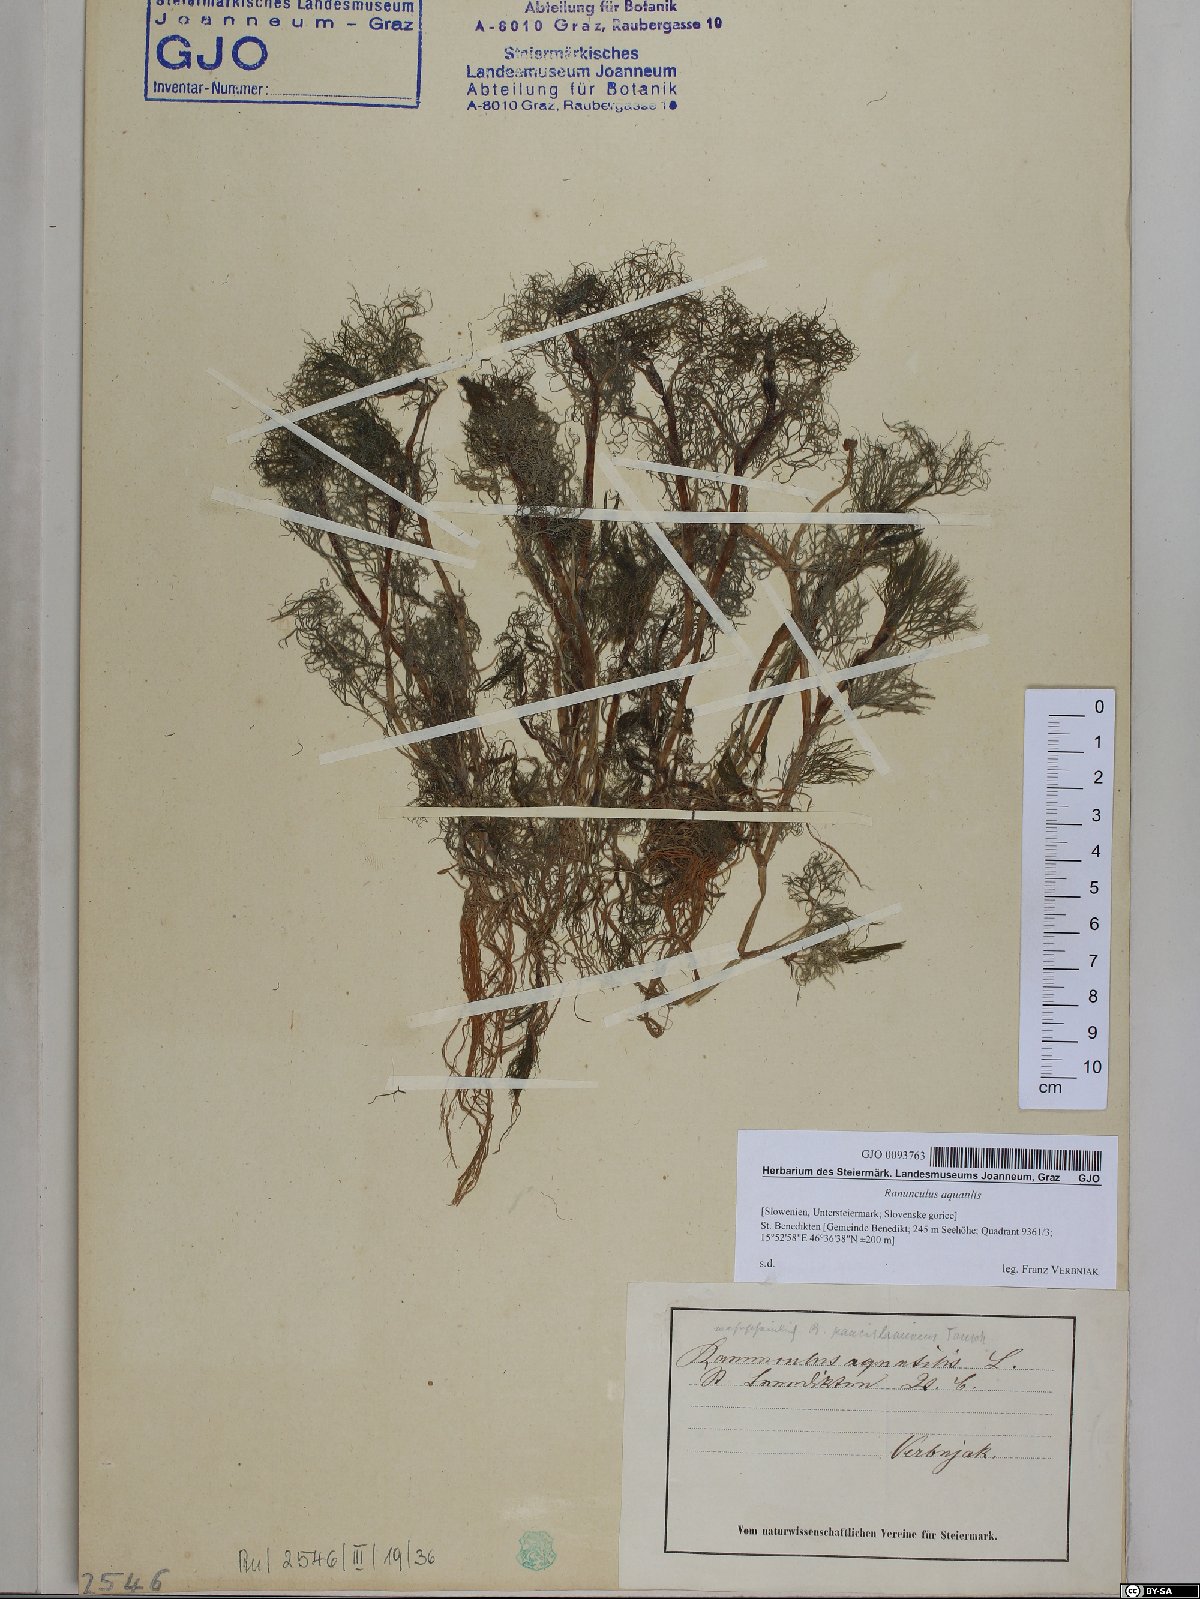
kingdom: Plantae
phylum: Tracheophyta
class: Magnoliopsida
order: Ranunculales
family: Ranunculaceae
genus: Ranunculus
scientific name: Ranunculus aquatilis
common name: Common water-crowfoot
